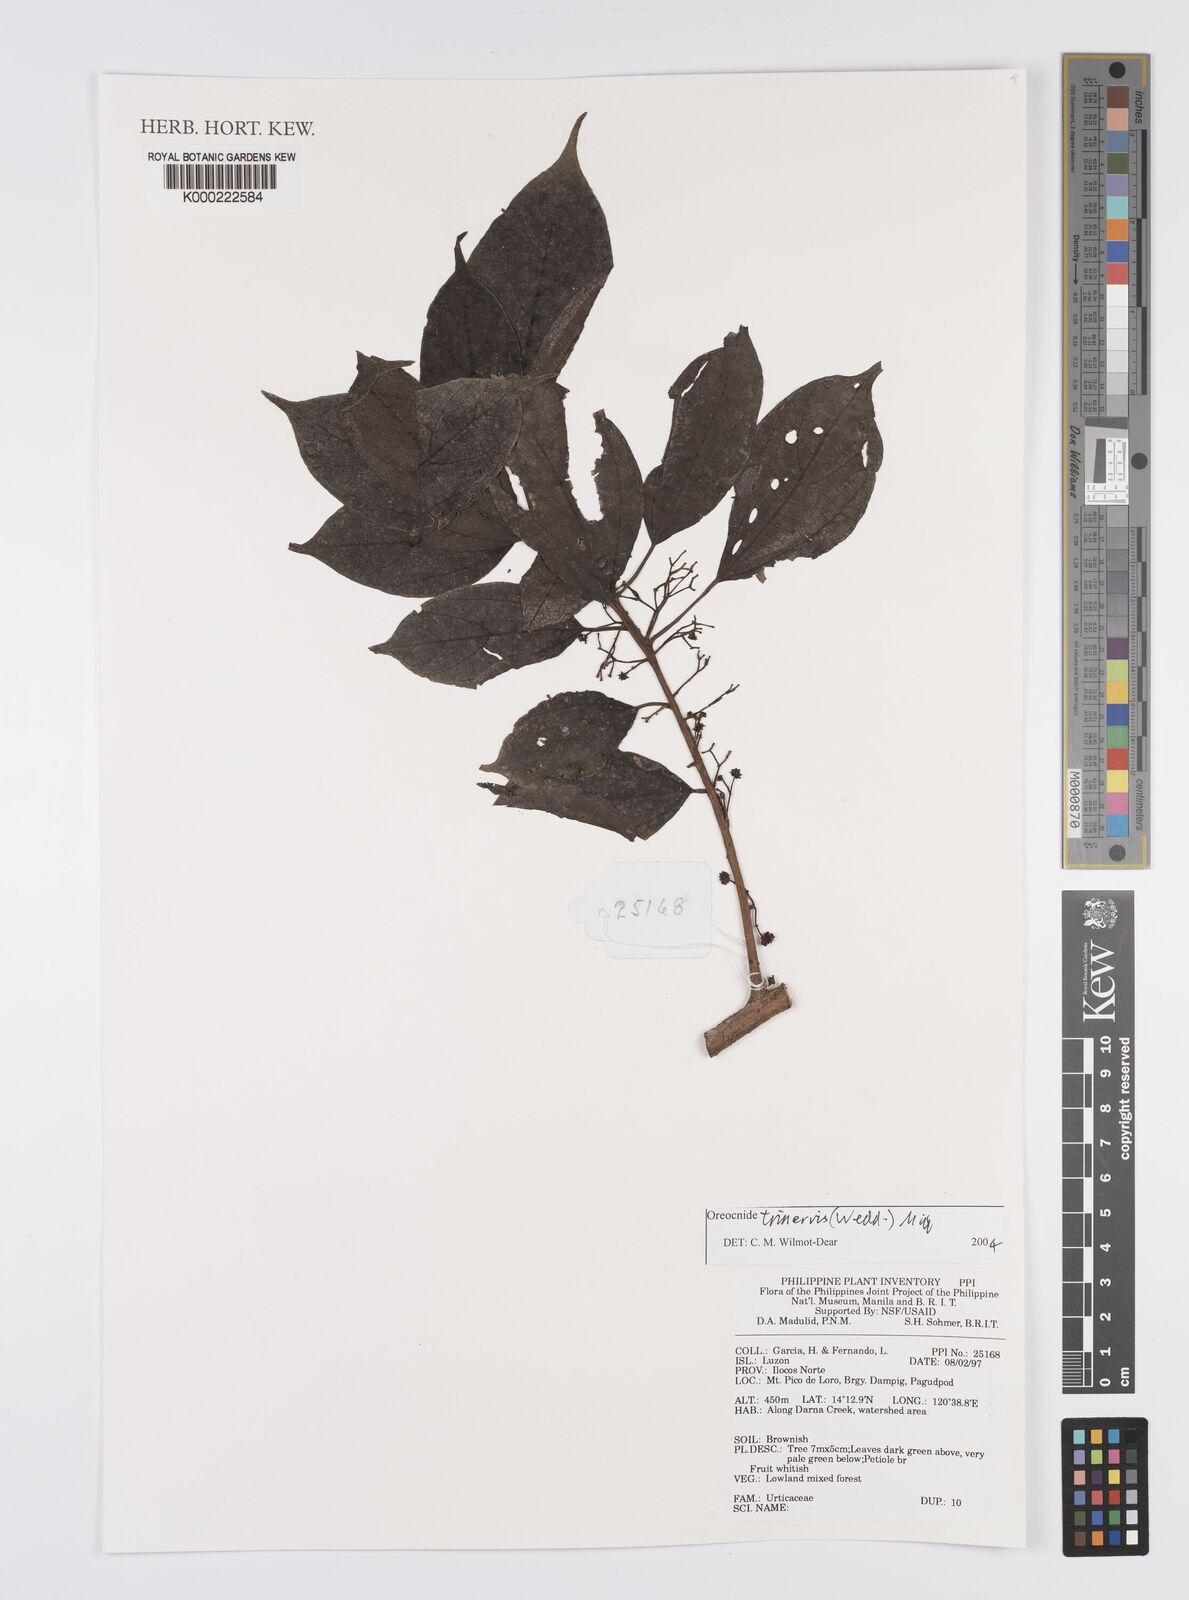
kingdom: Plantae
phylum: Tracheophyta
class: Magnoliopsida
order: Rosales
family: Urticaceae
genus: Oreocnide
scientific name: Oreocnide trinervis
